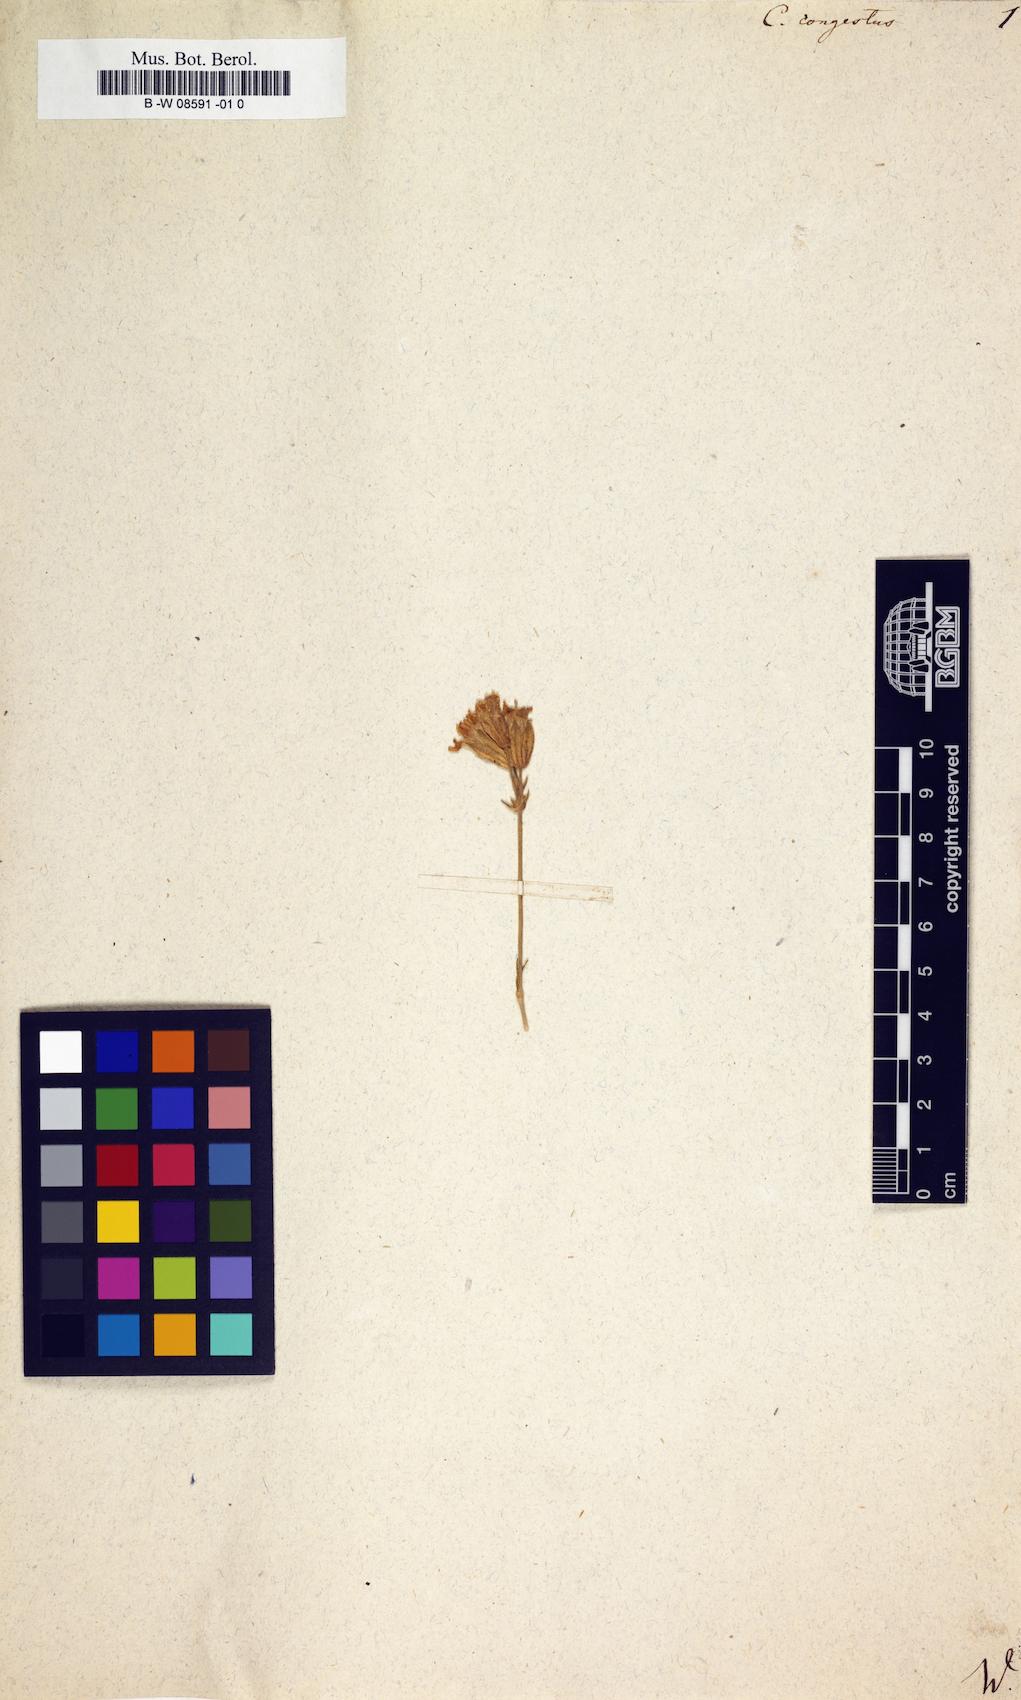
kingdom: Plantae
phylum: Tracheophyta
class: Magnoliopsida
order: Caryophyllales
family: Caryophyllaceae
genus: Silene
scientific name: Silene repens
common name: Pink campion
